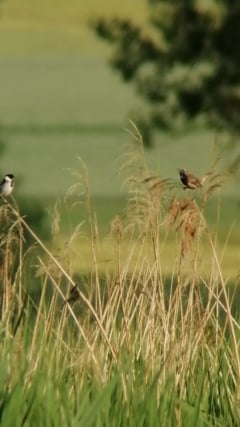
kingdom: Animalia
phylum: Chordata
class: Aves
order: Passeriformes
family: Muscicapidae
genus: Luscinia
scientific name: Luscinia svecica
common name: Bluethroat
